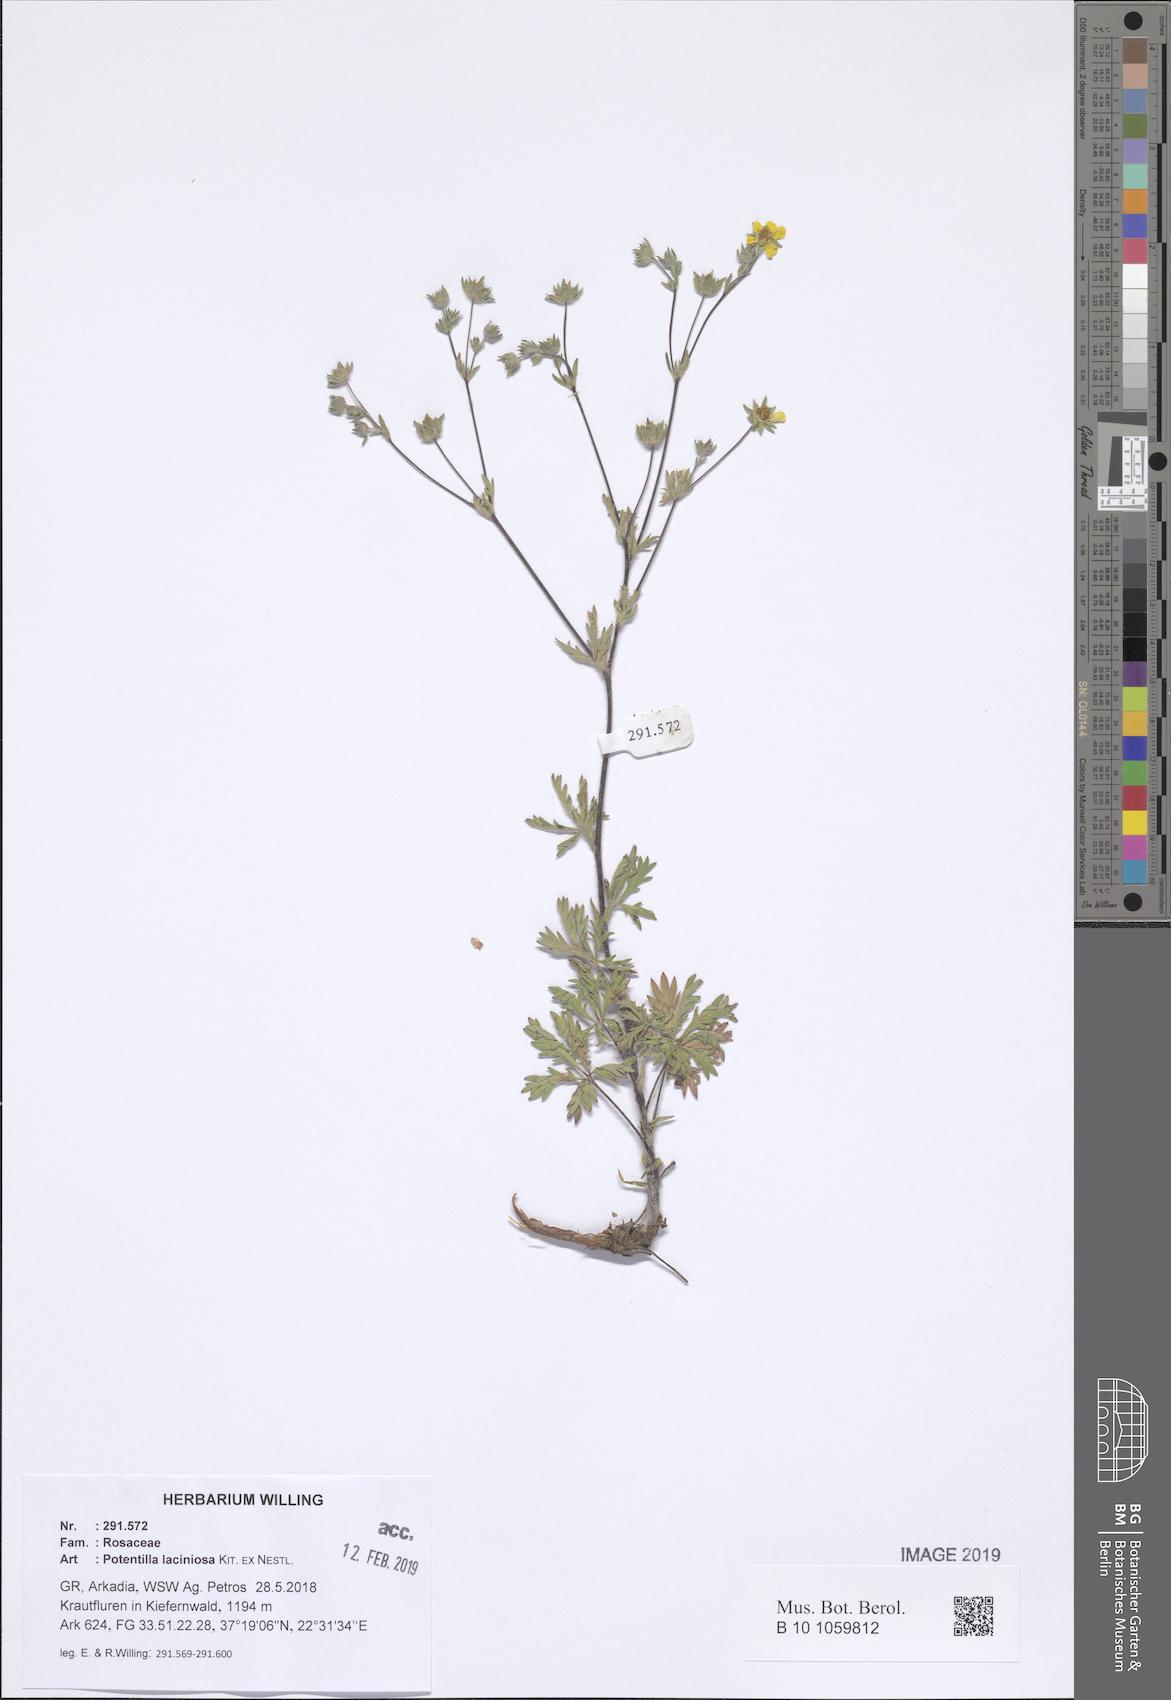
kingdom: Plantae
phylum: Tracheophyta
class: Magnoliopsida
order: Rosales
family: Rosaceae
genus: Potentilla
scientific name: Potentilla recta
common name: Sulphur cinquefoil
